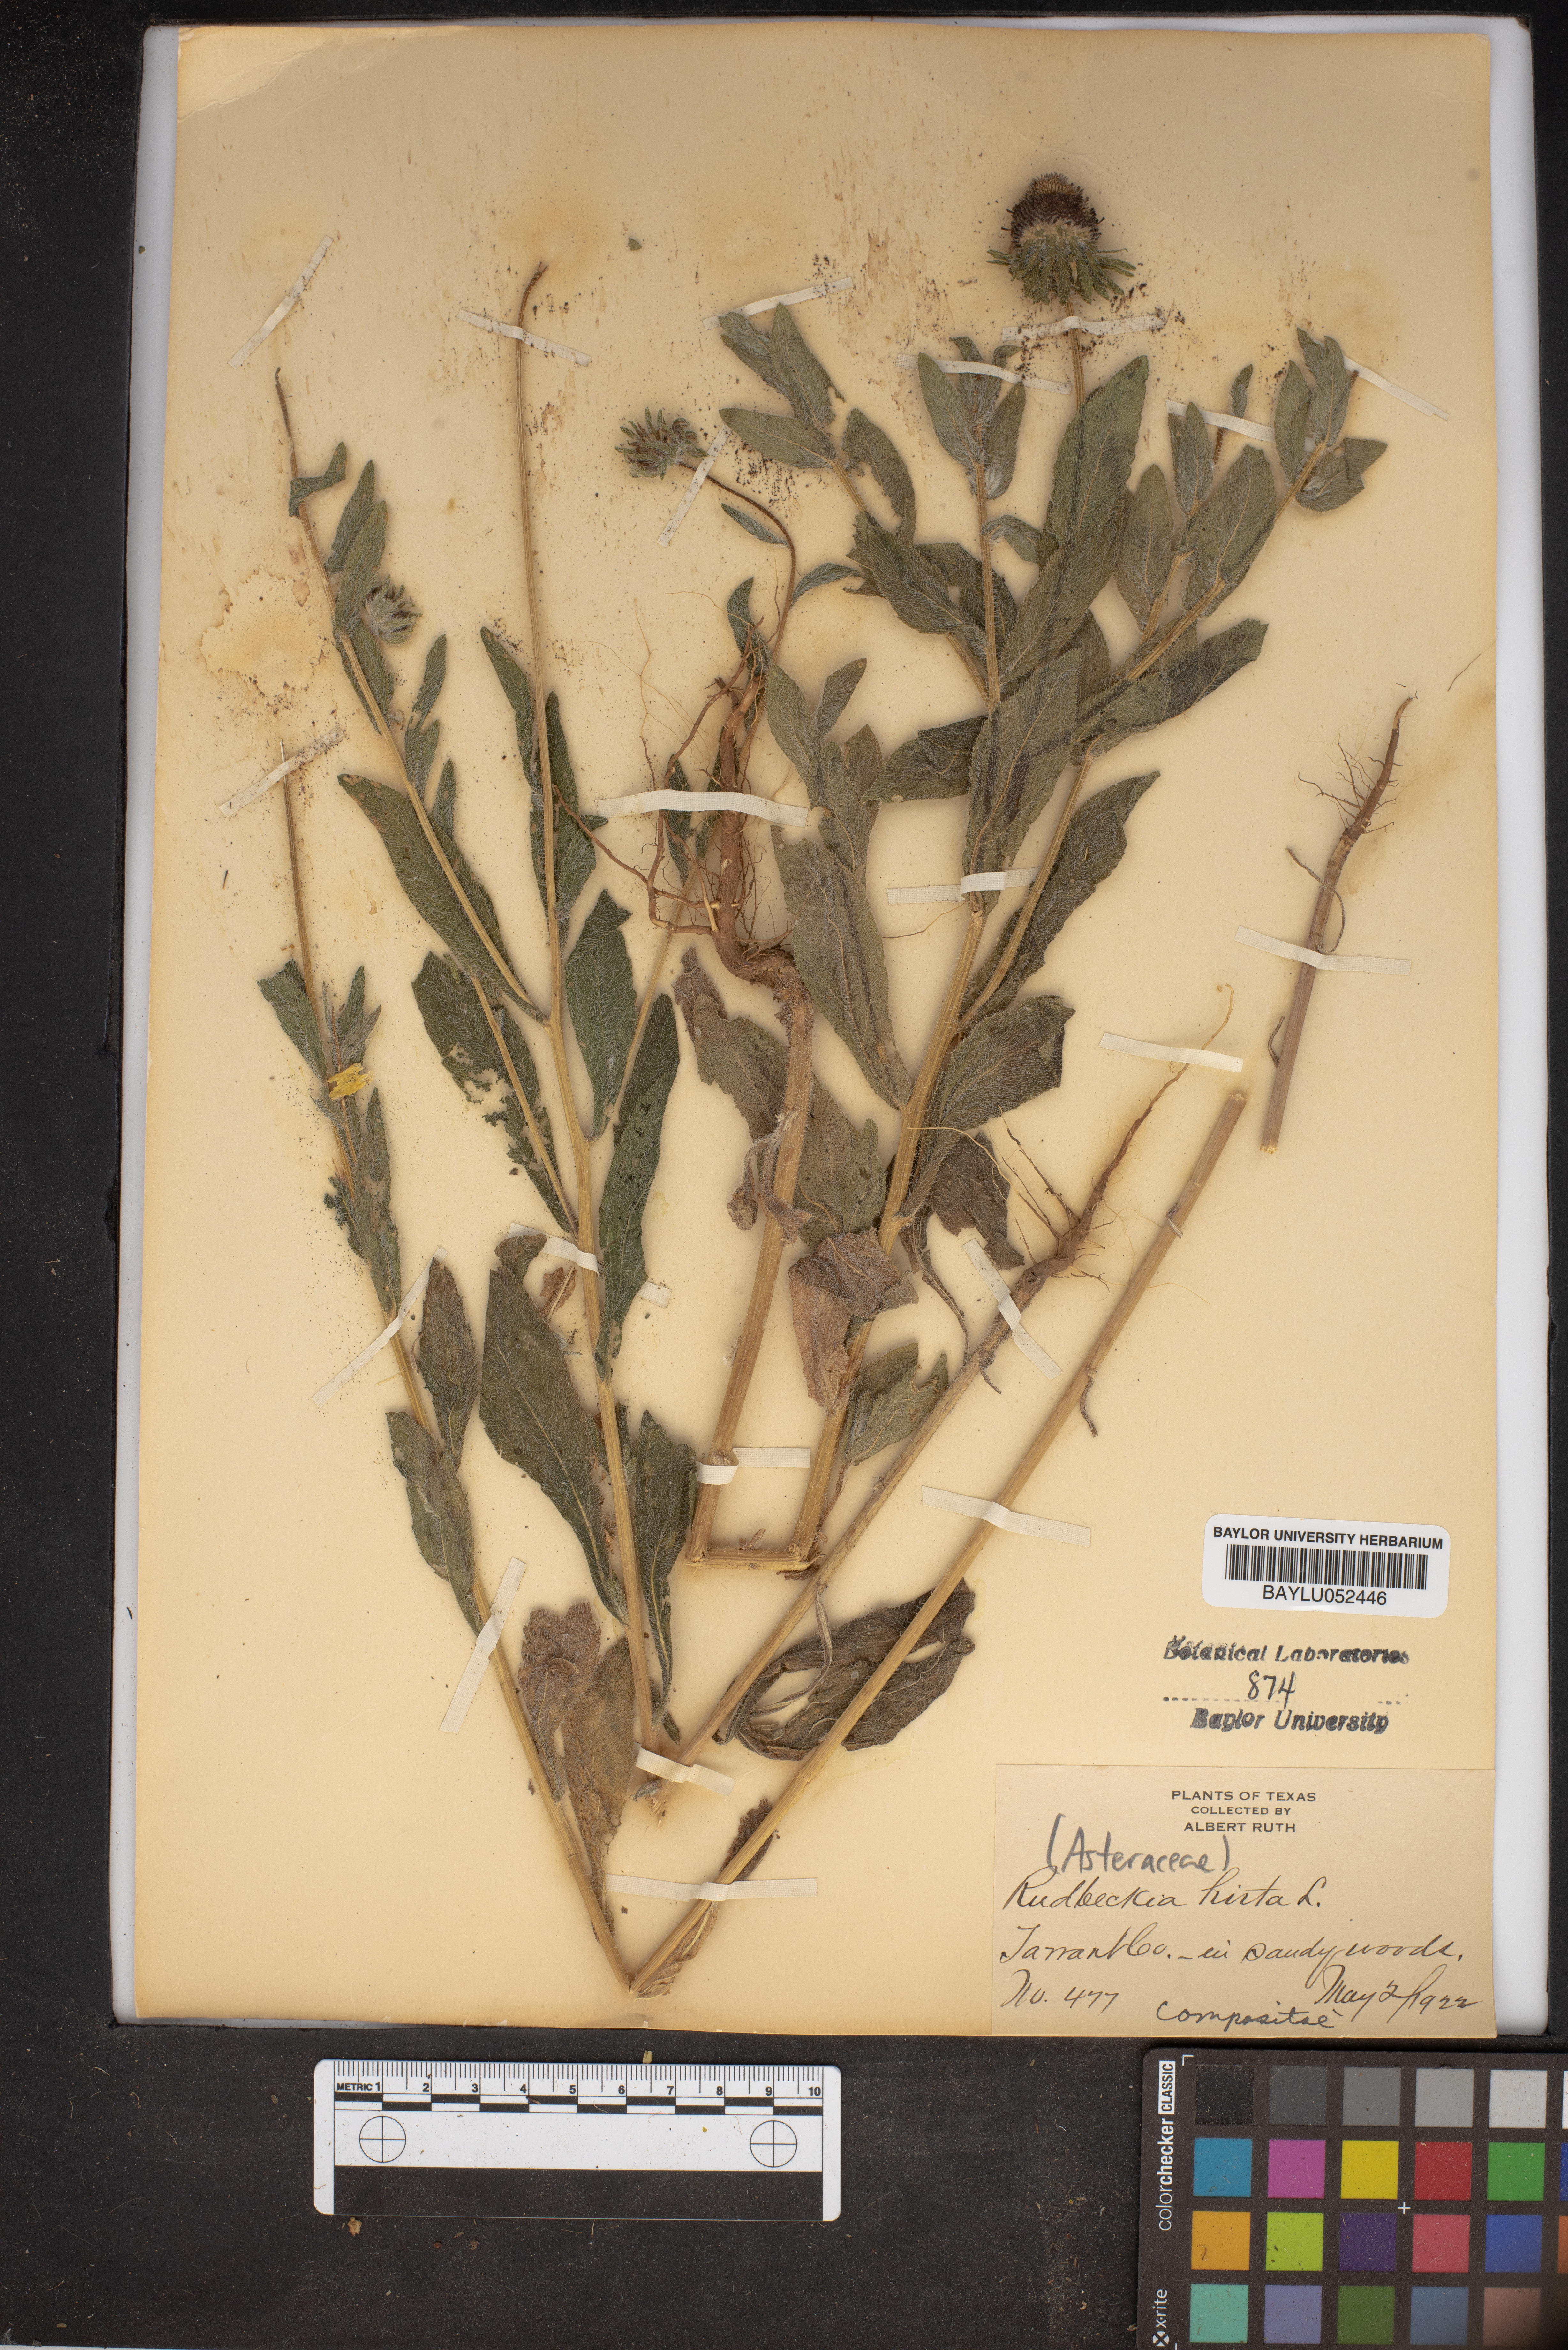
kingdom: Plantae
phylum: Tracheophyta
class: Magnoliopsida
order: Asterales
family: Asteraceae
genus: Rudbeckia
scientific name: Rudbeckia hirta
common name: Black-eyed-susan
